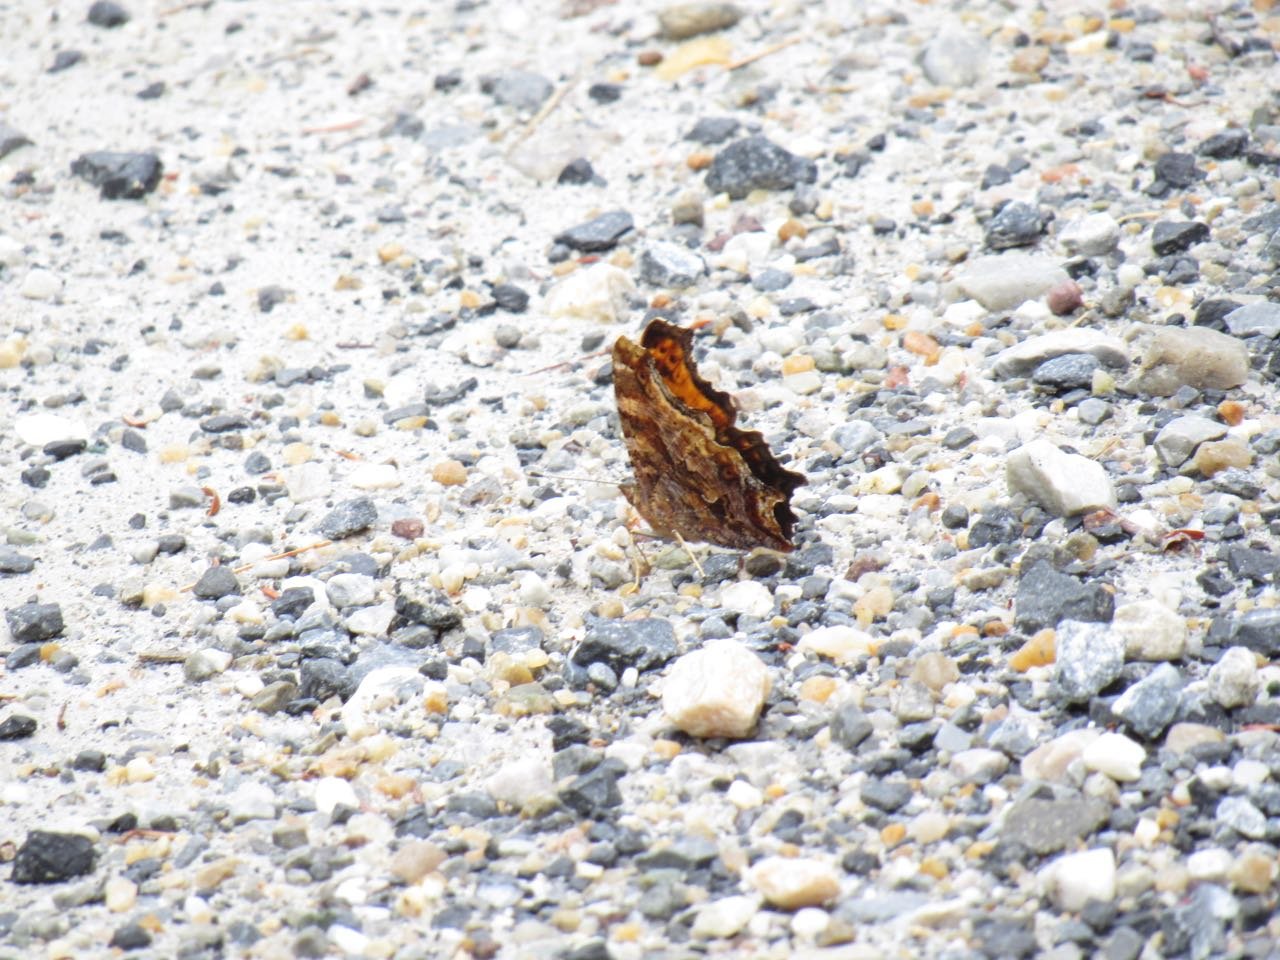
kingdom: Animalia
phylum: Arthropoda
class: Insecta
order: Lepidoptera
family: Nymphalidae
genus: Polygonia
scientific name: Polygonia comma
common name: Eastern Comma
